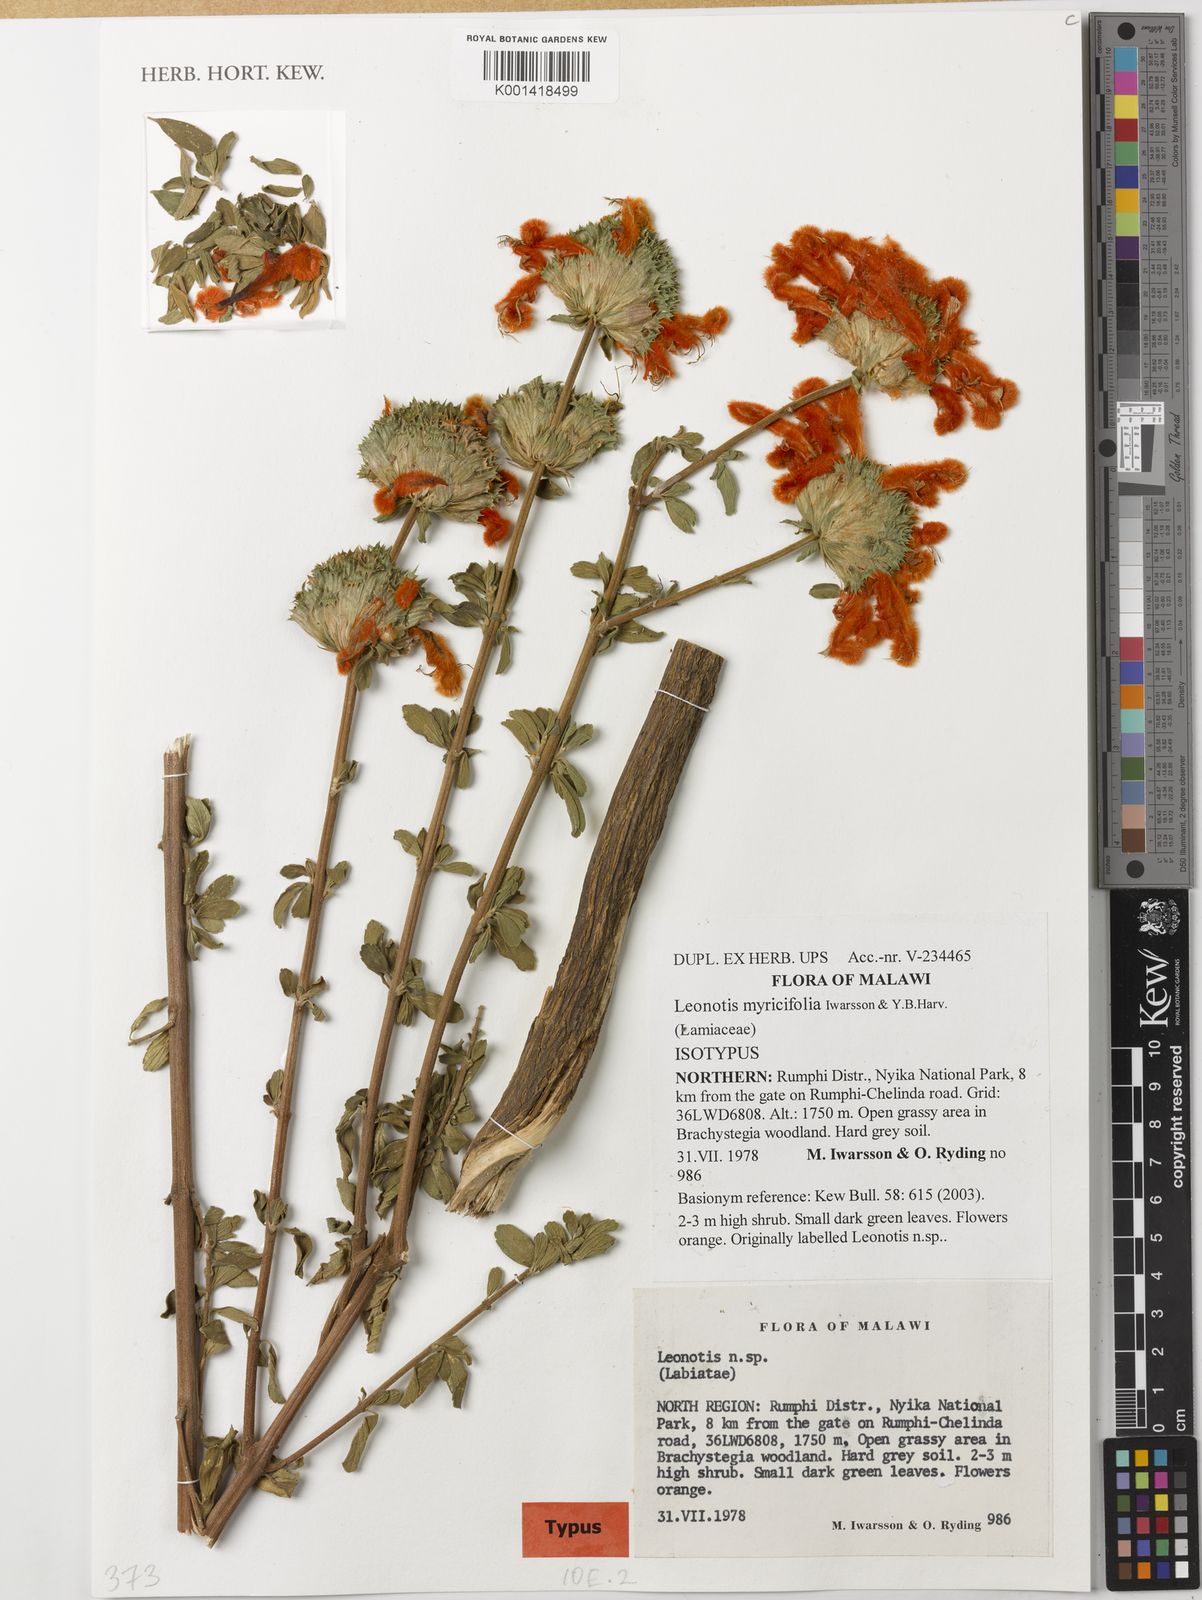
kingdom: Plantae
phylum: Tracheophyta
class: Magnoliopsida
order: Lamiales
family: Lamiaceae
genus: Leonotis
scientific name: Leonotis myricifolia
